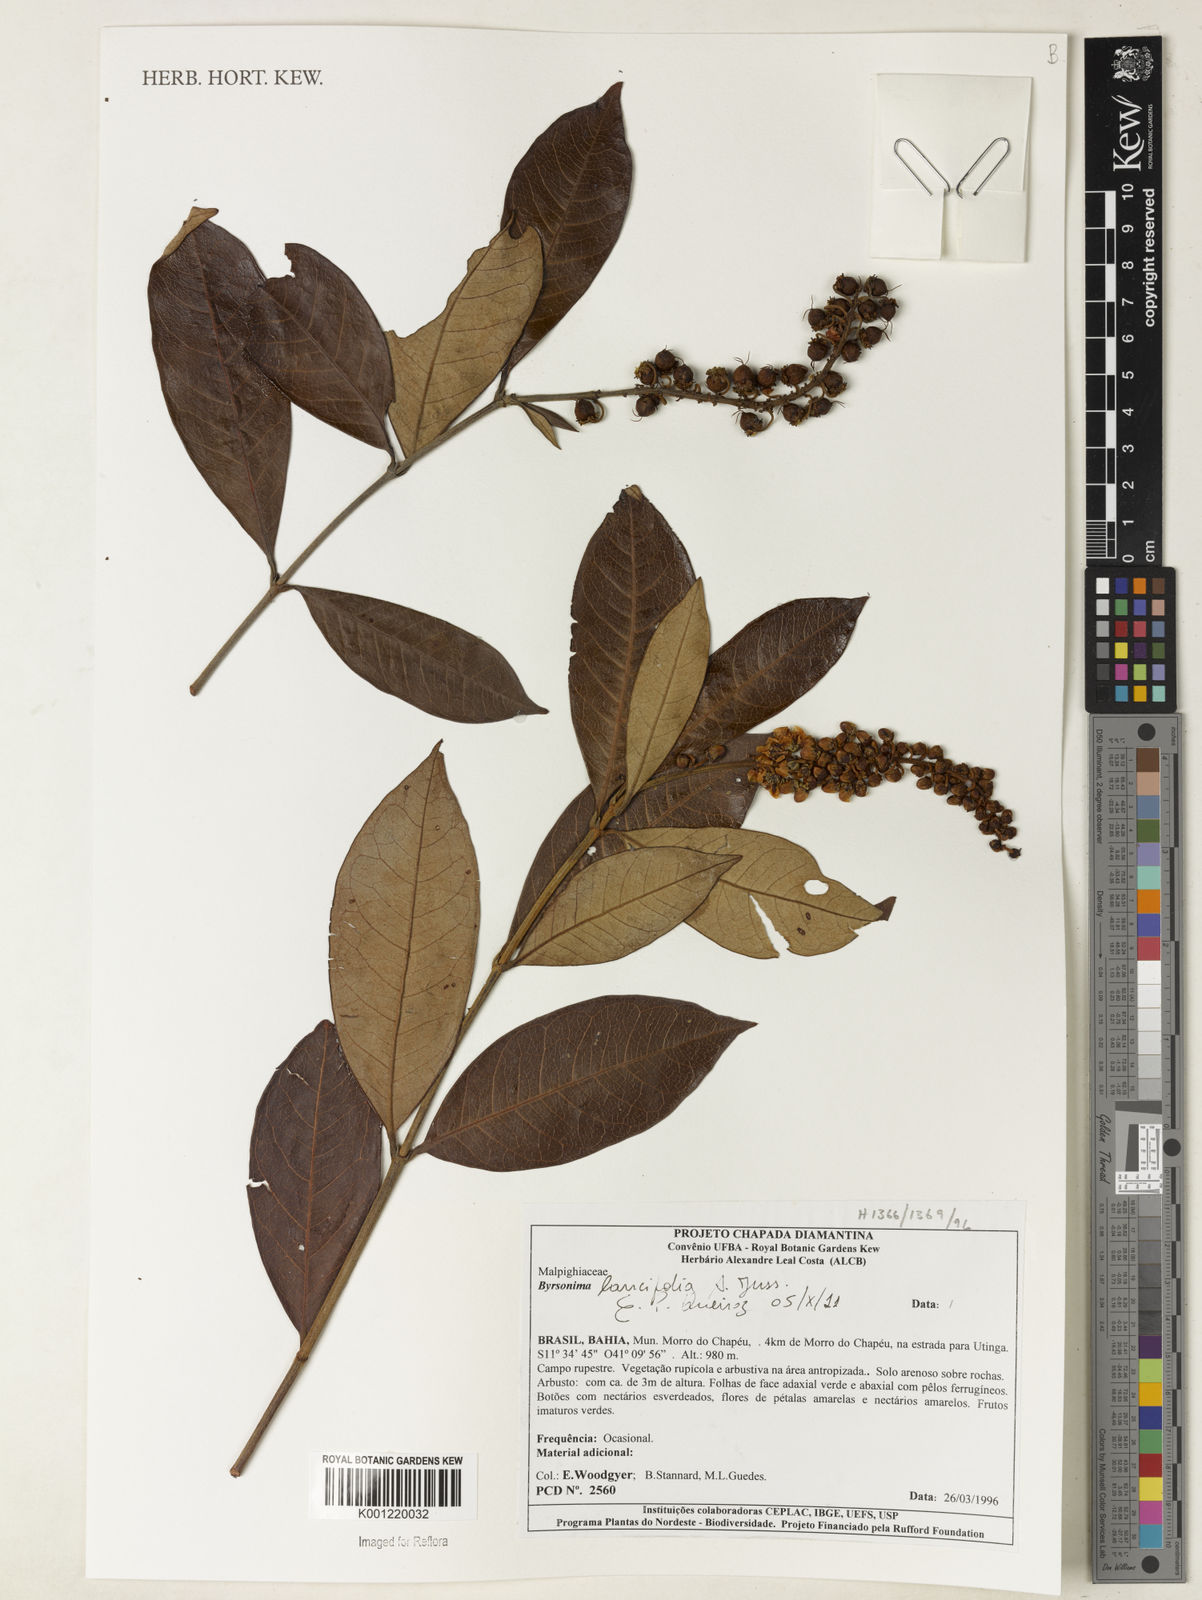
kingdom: Plantae
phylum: Tracheophyta
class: Magnoliopsida
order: Malpighiales
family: Malpighiaceae
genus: Byrsonima
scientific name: Byrsonima lancifolia
